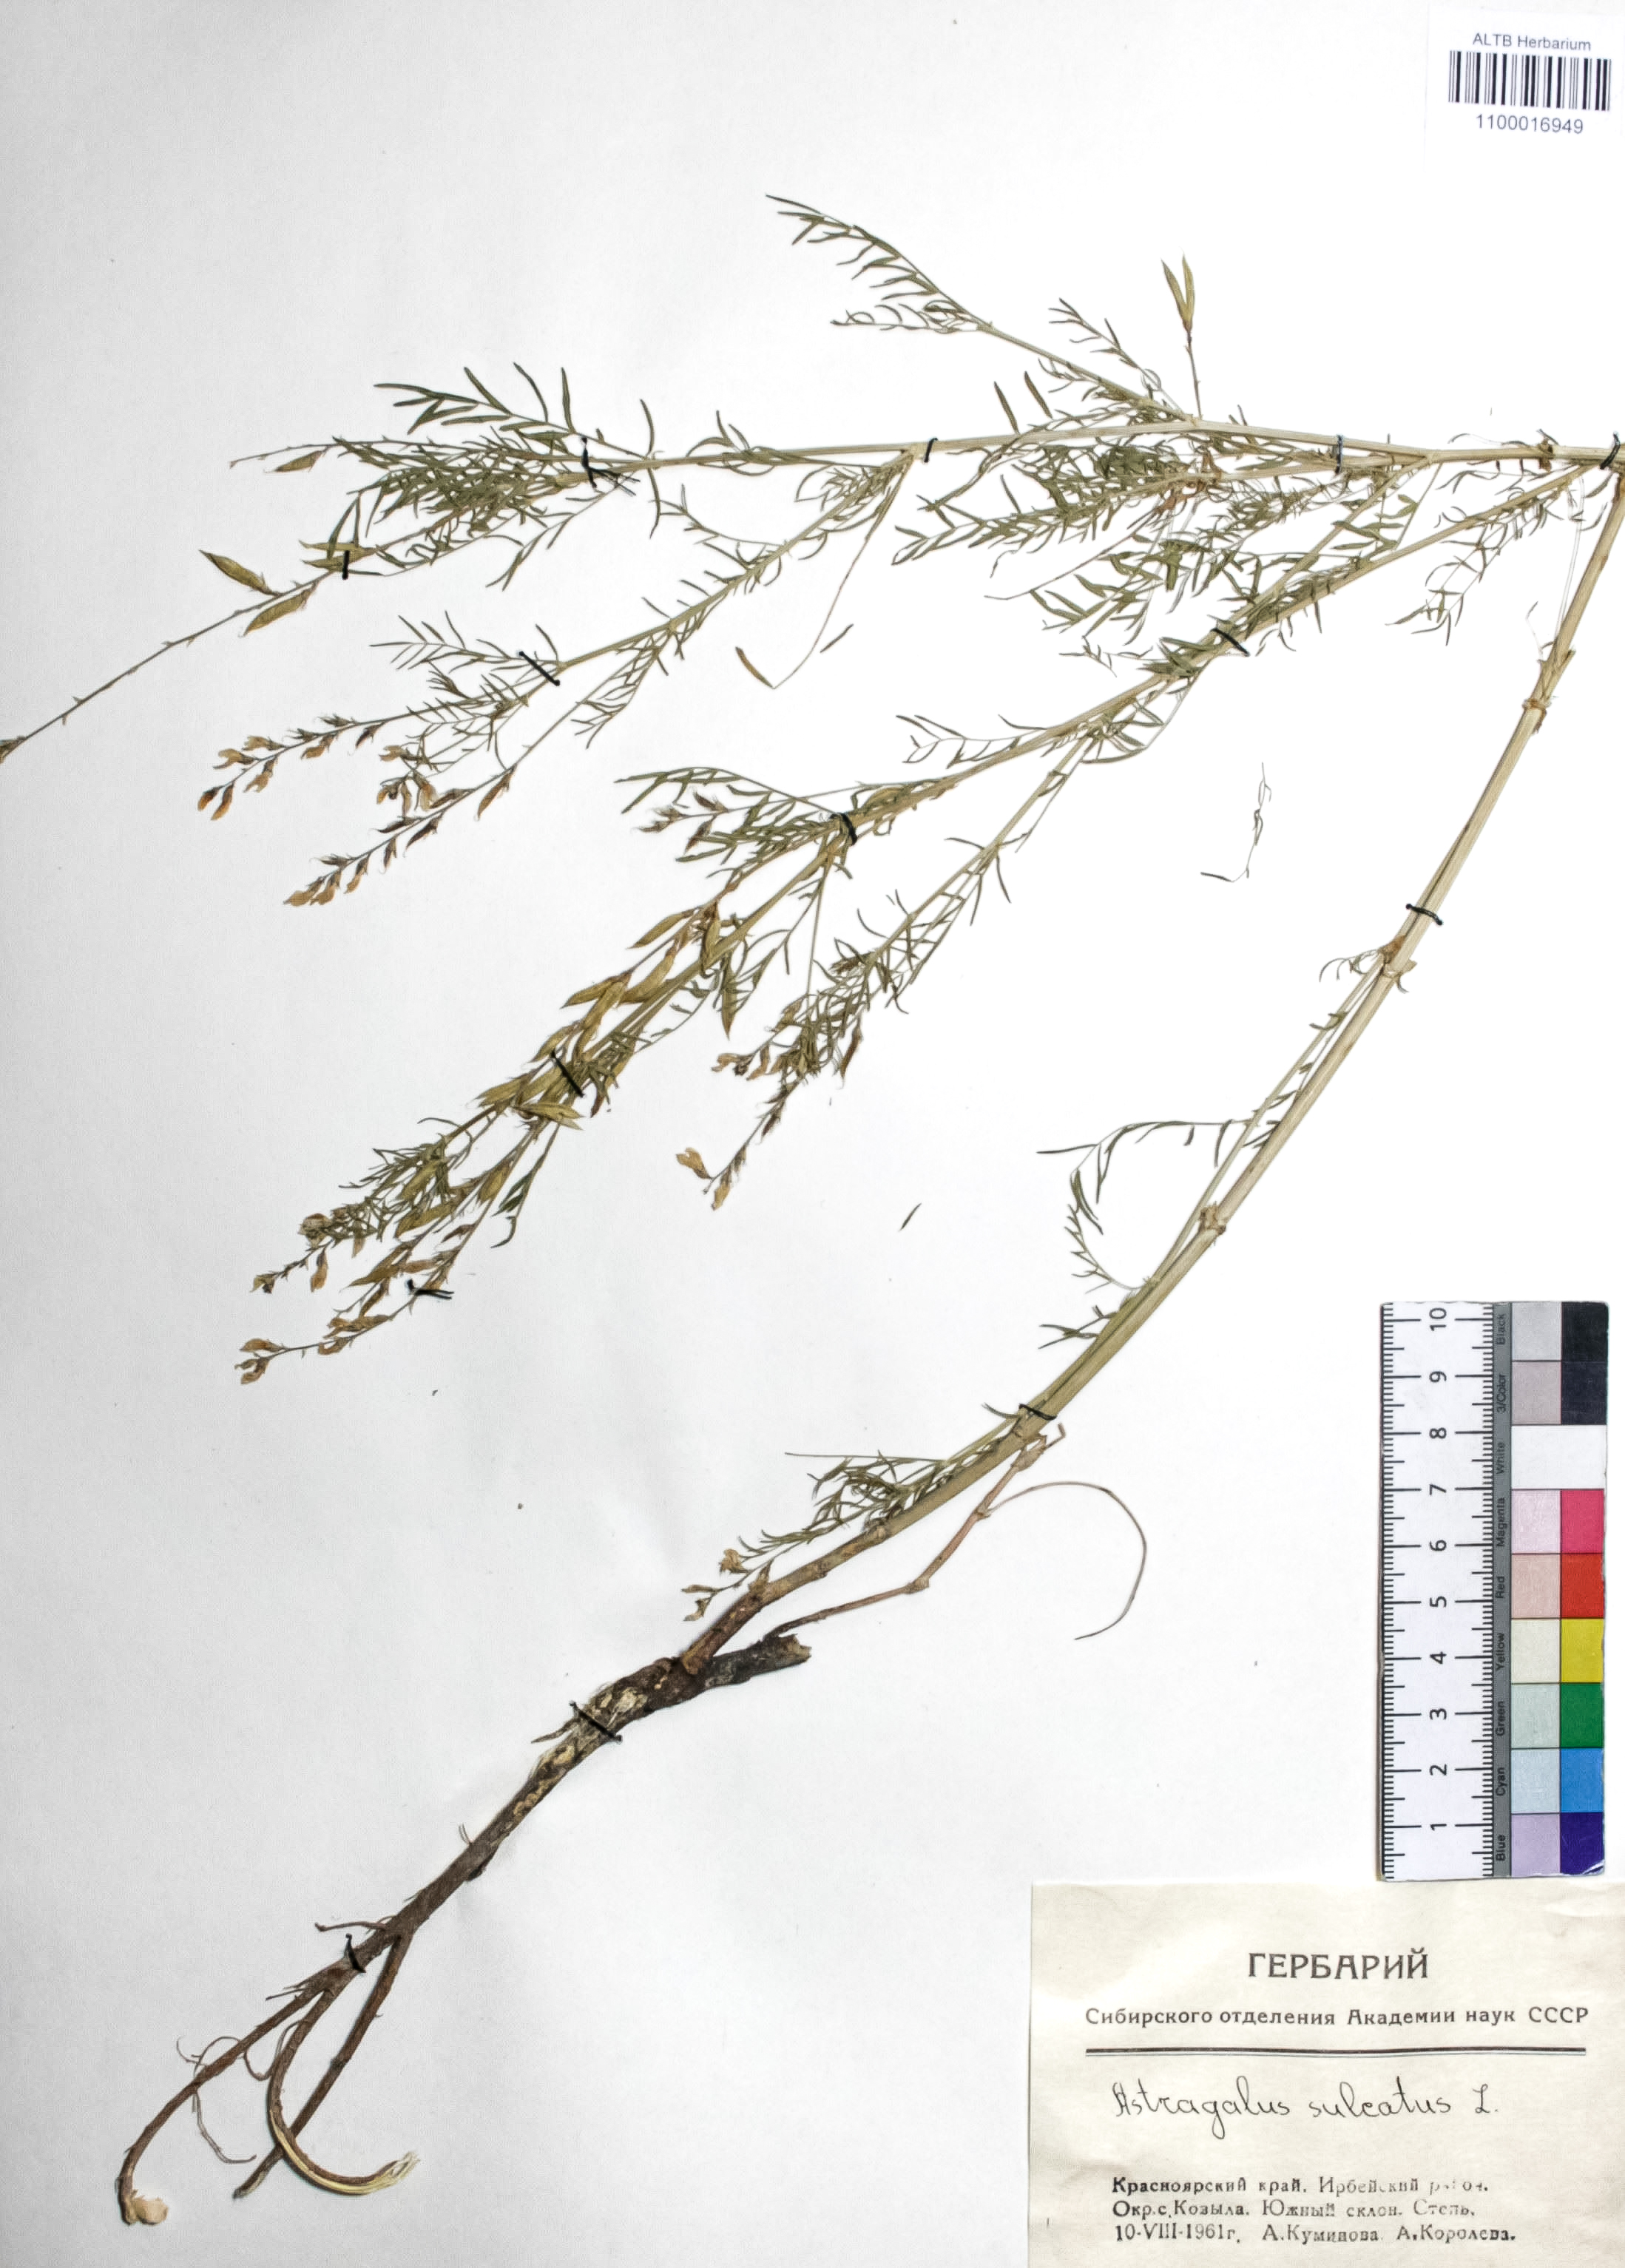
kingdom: Plantae
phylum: Tracheophyta
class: Magnoliopsida
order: Fabales
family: Fabaceae
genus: Astragalus
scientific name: Astragalus sulcatus
